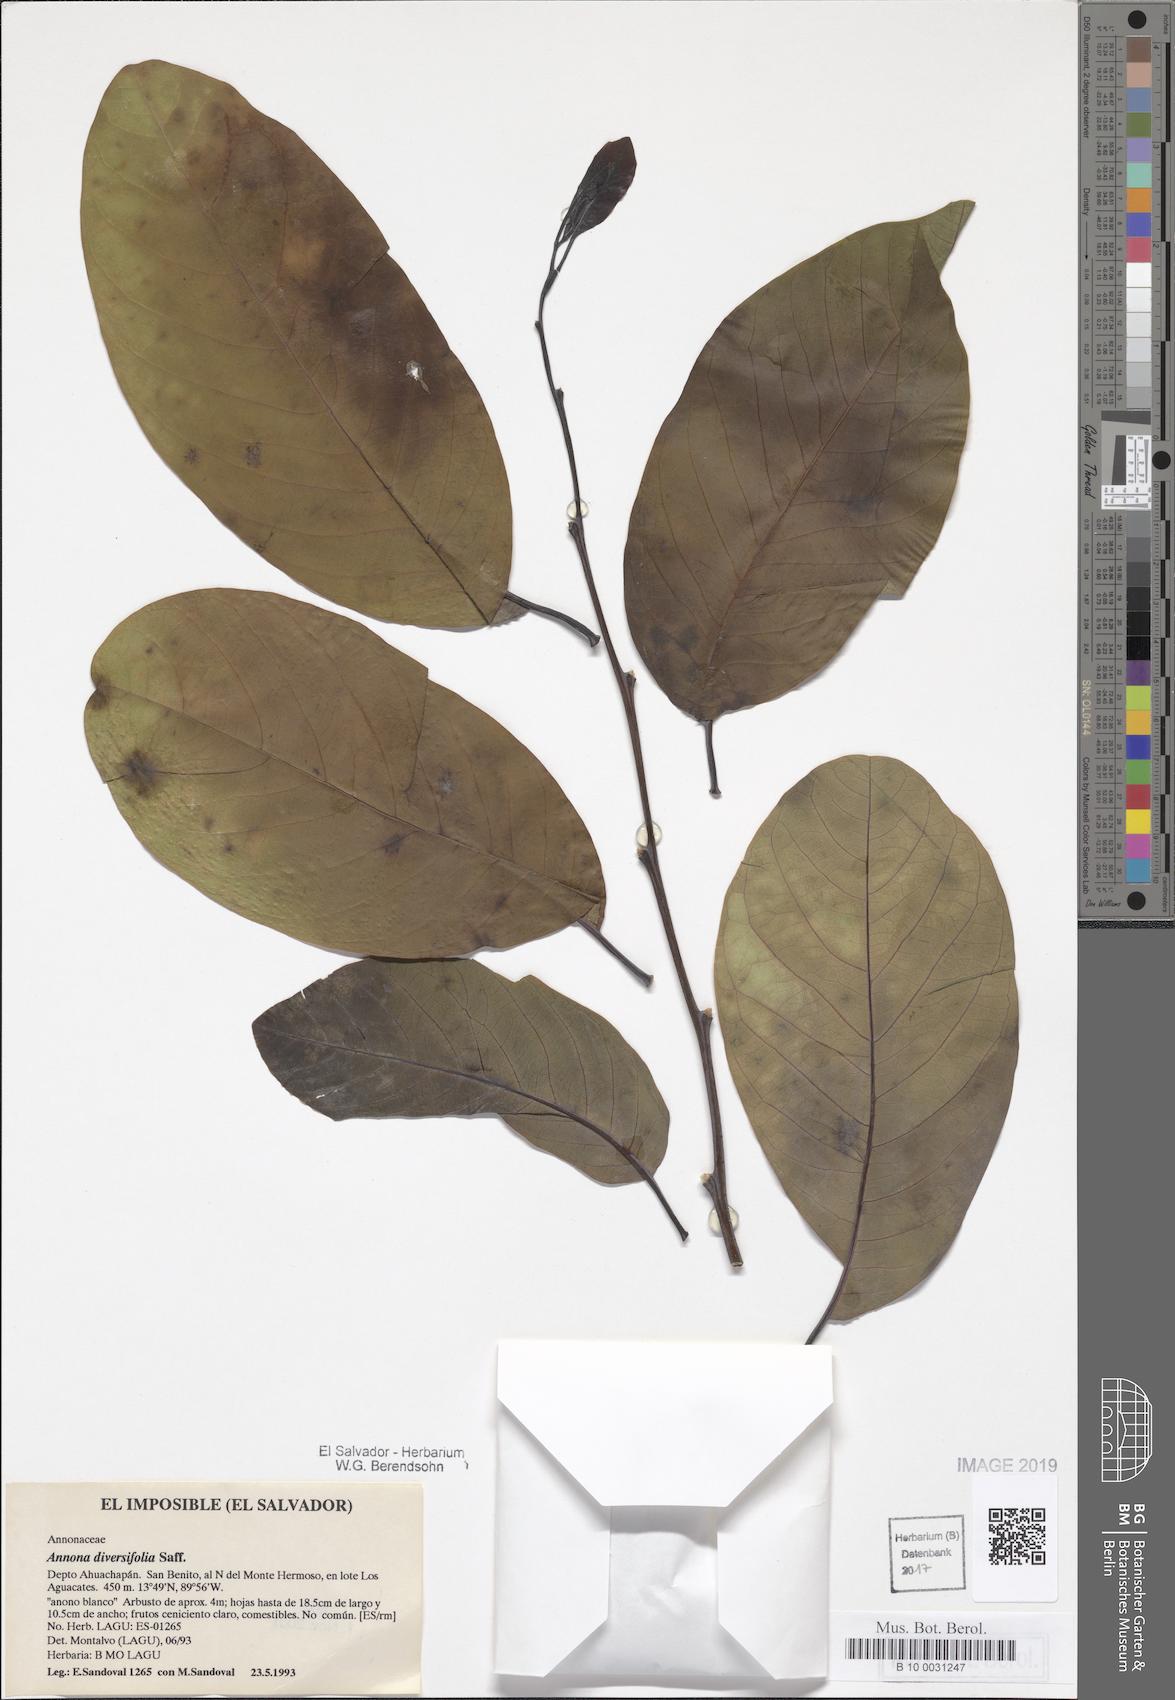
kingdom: Plantae
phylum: Tracheophyta
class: Magnoliopsida
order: Magnoliales
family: Annonaceae
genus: Annona
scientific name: Annona macroprophyllata
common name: Ilama
